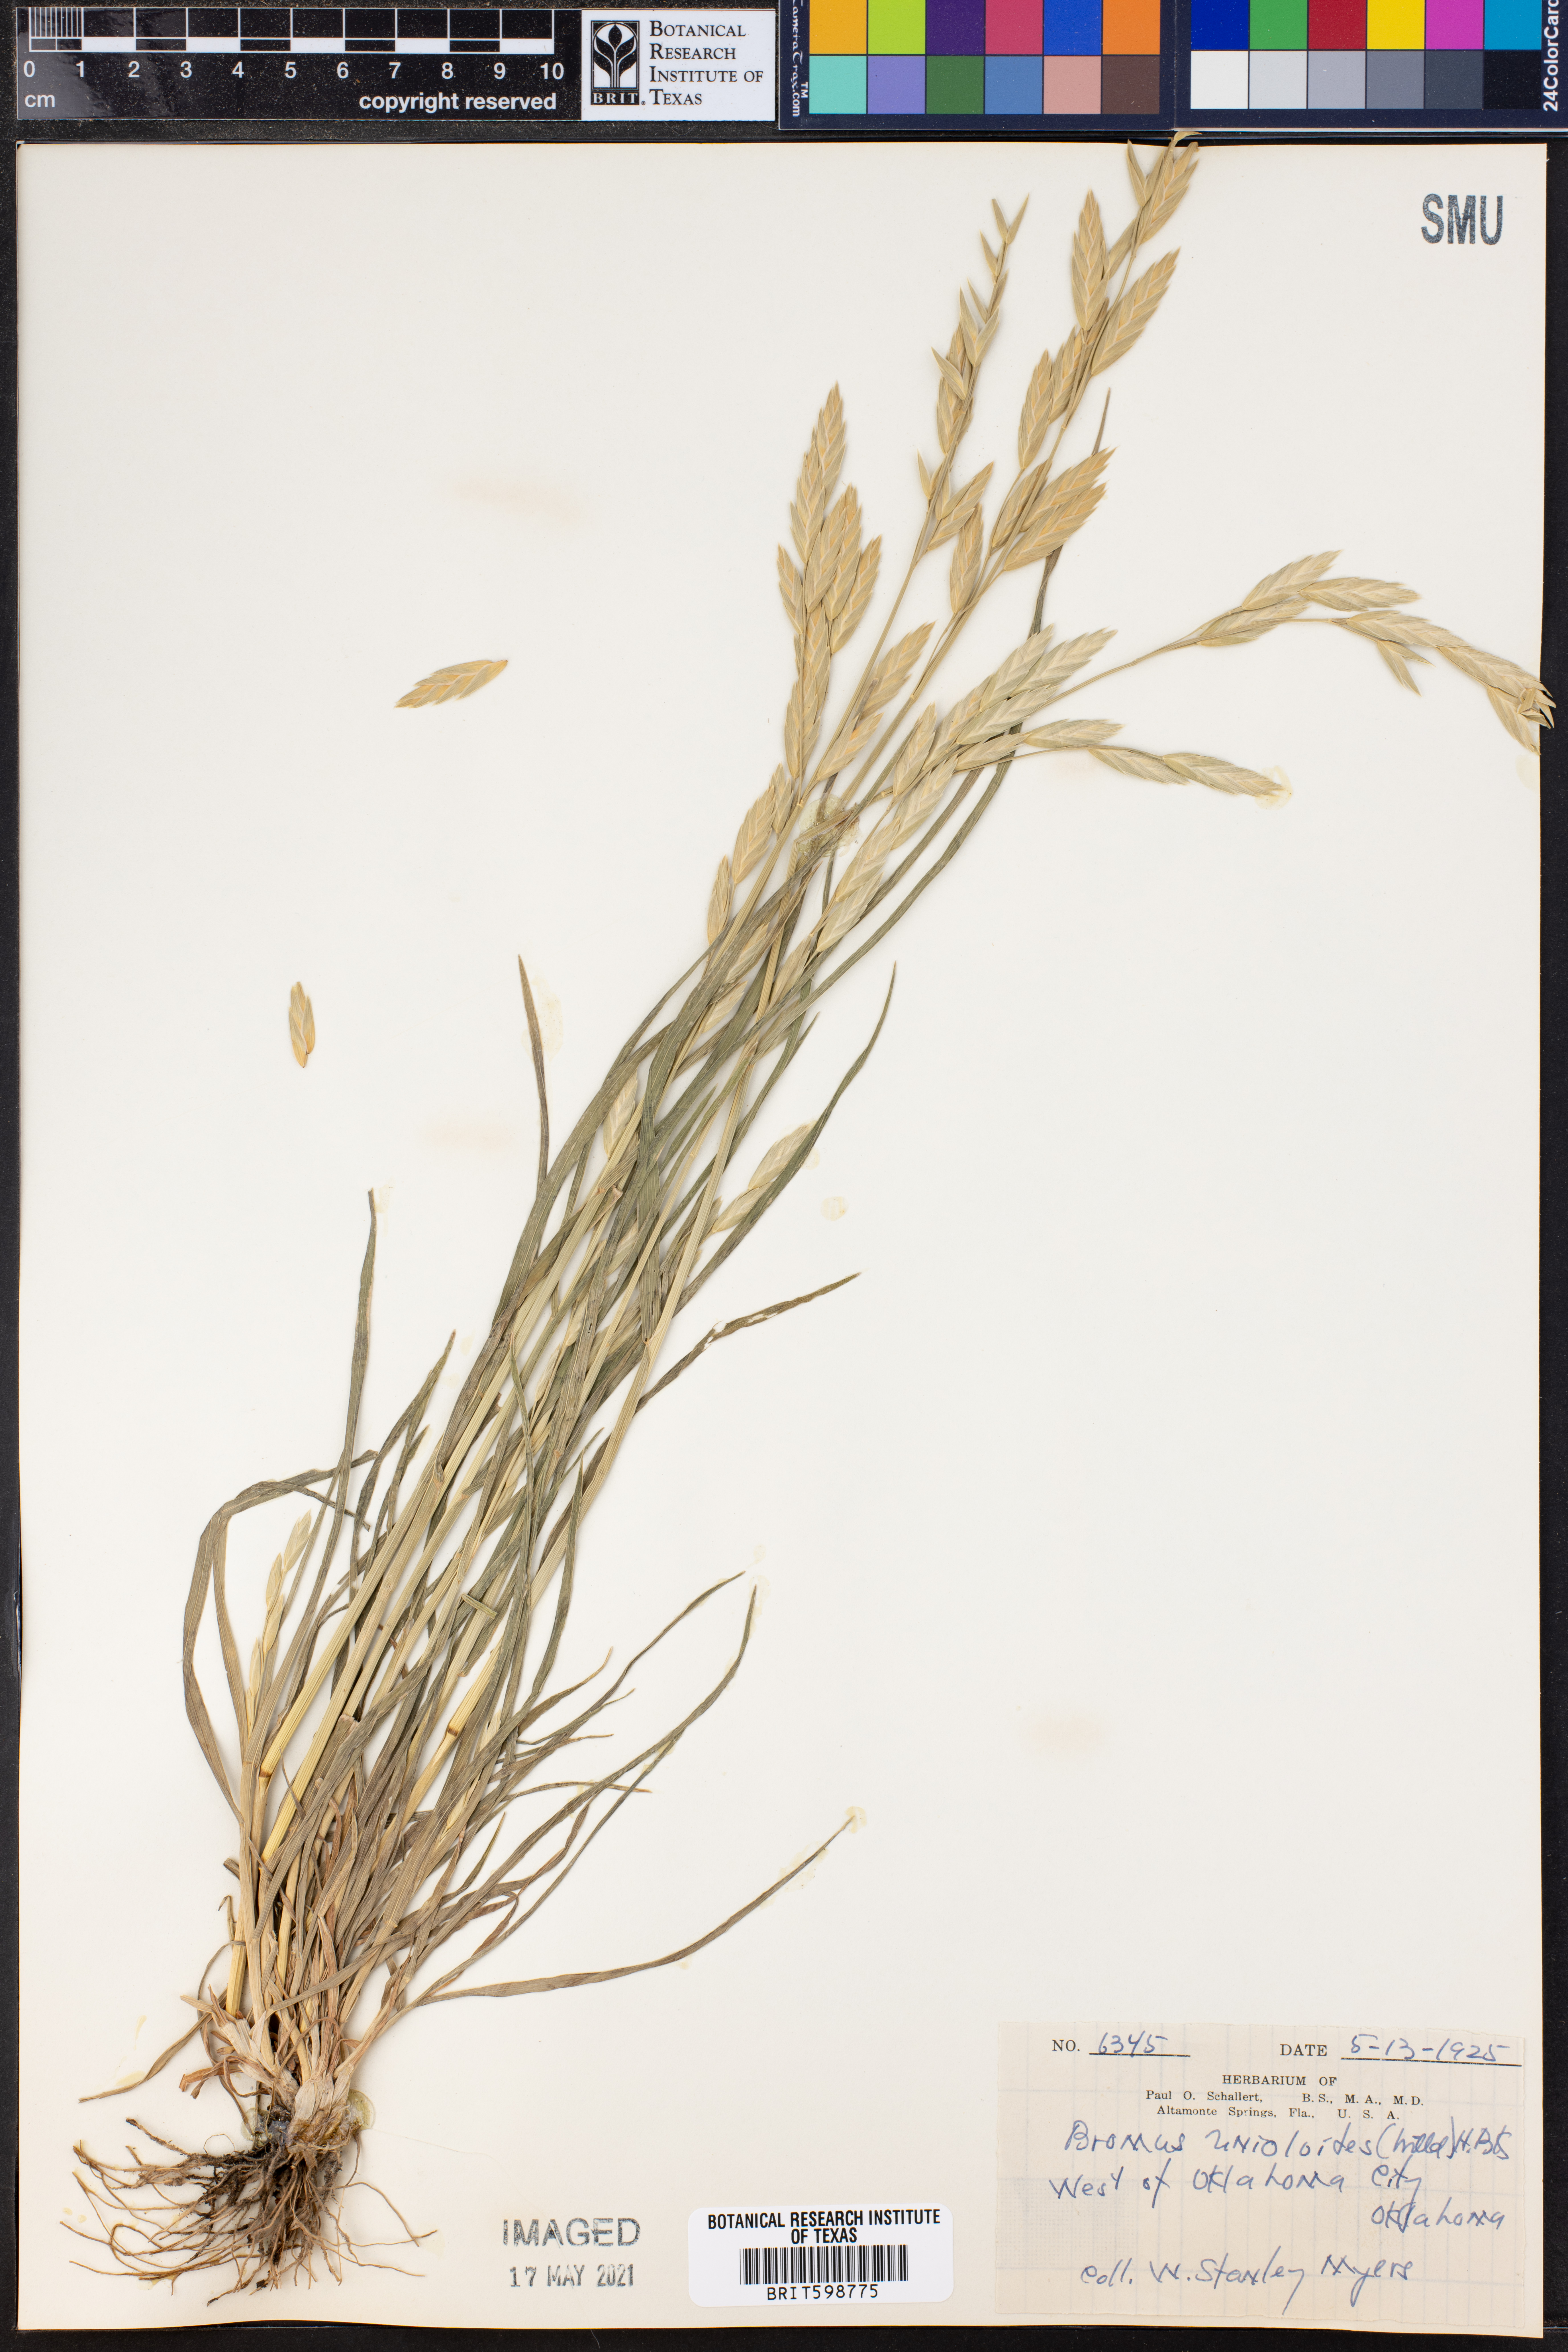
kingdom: Plantae
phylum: Tracheophyta
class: Liliopsida
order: Poales
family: Poaceae
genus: Bromus
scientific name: Bromus catharticus
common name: Rescuegrass
